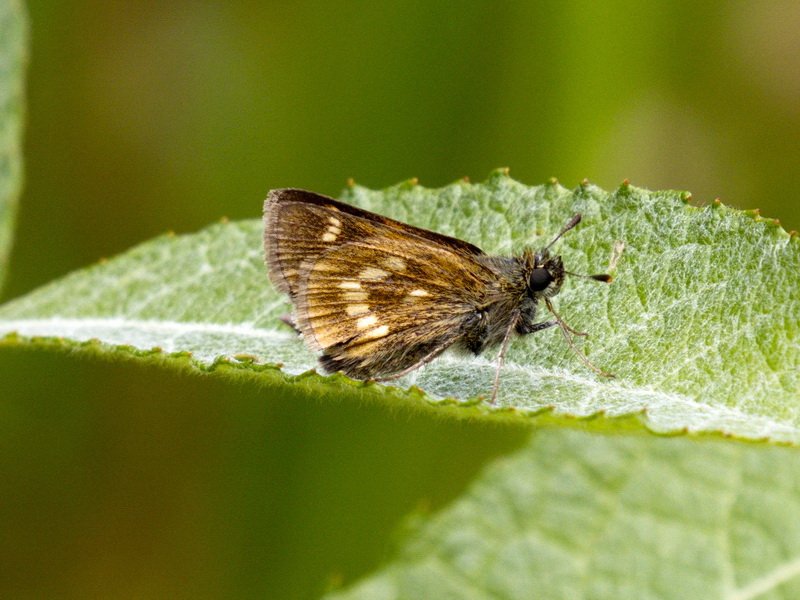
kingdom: Animalia
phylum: Arthropoda
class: Insecta
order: Lepidoptera
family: Hesperiidae
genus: Polites
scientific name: Polites
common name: Long Dash Skipper
